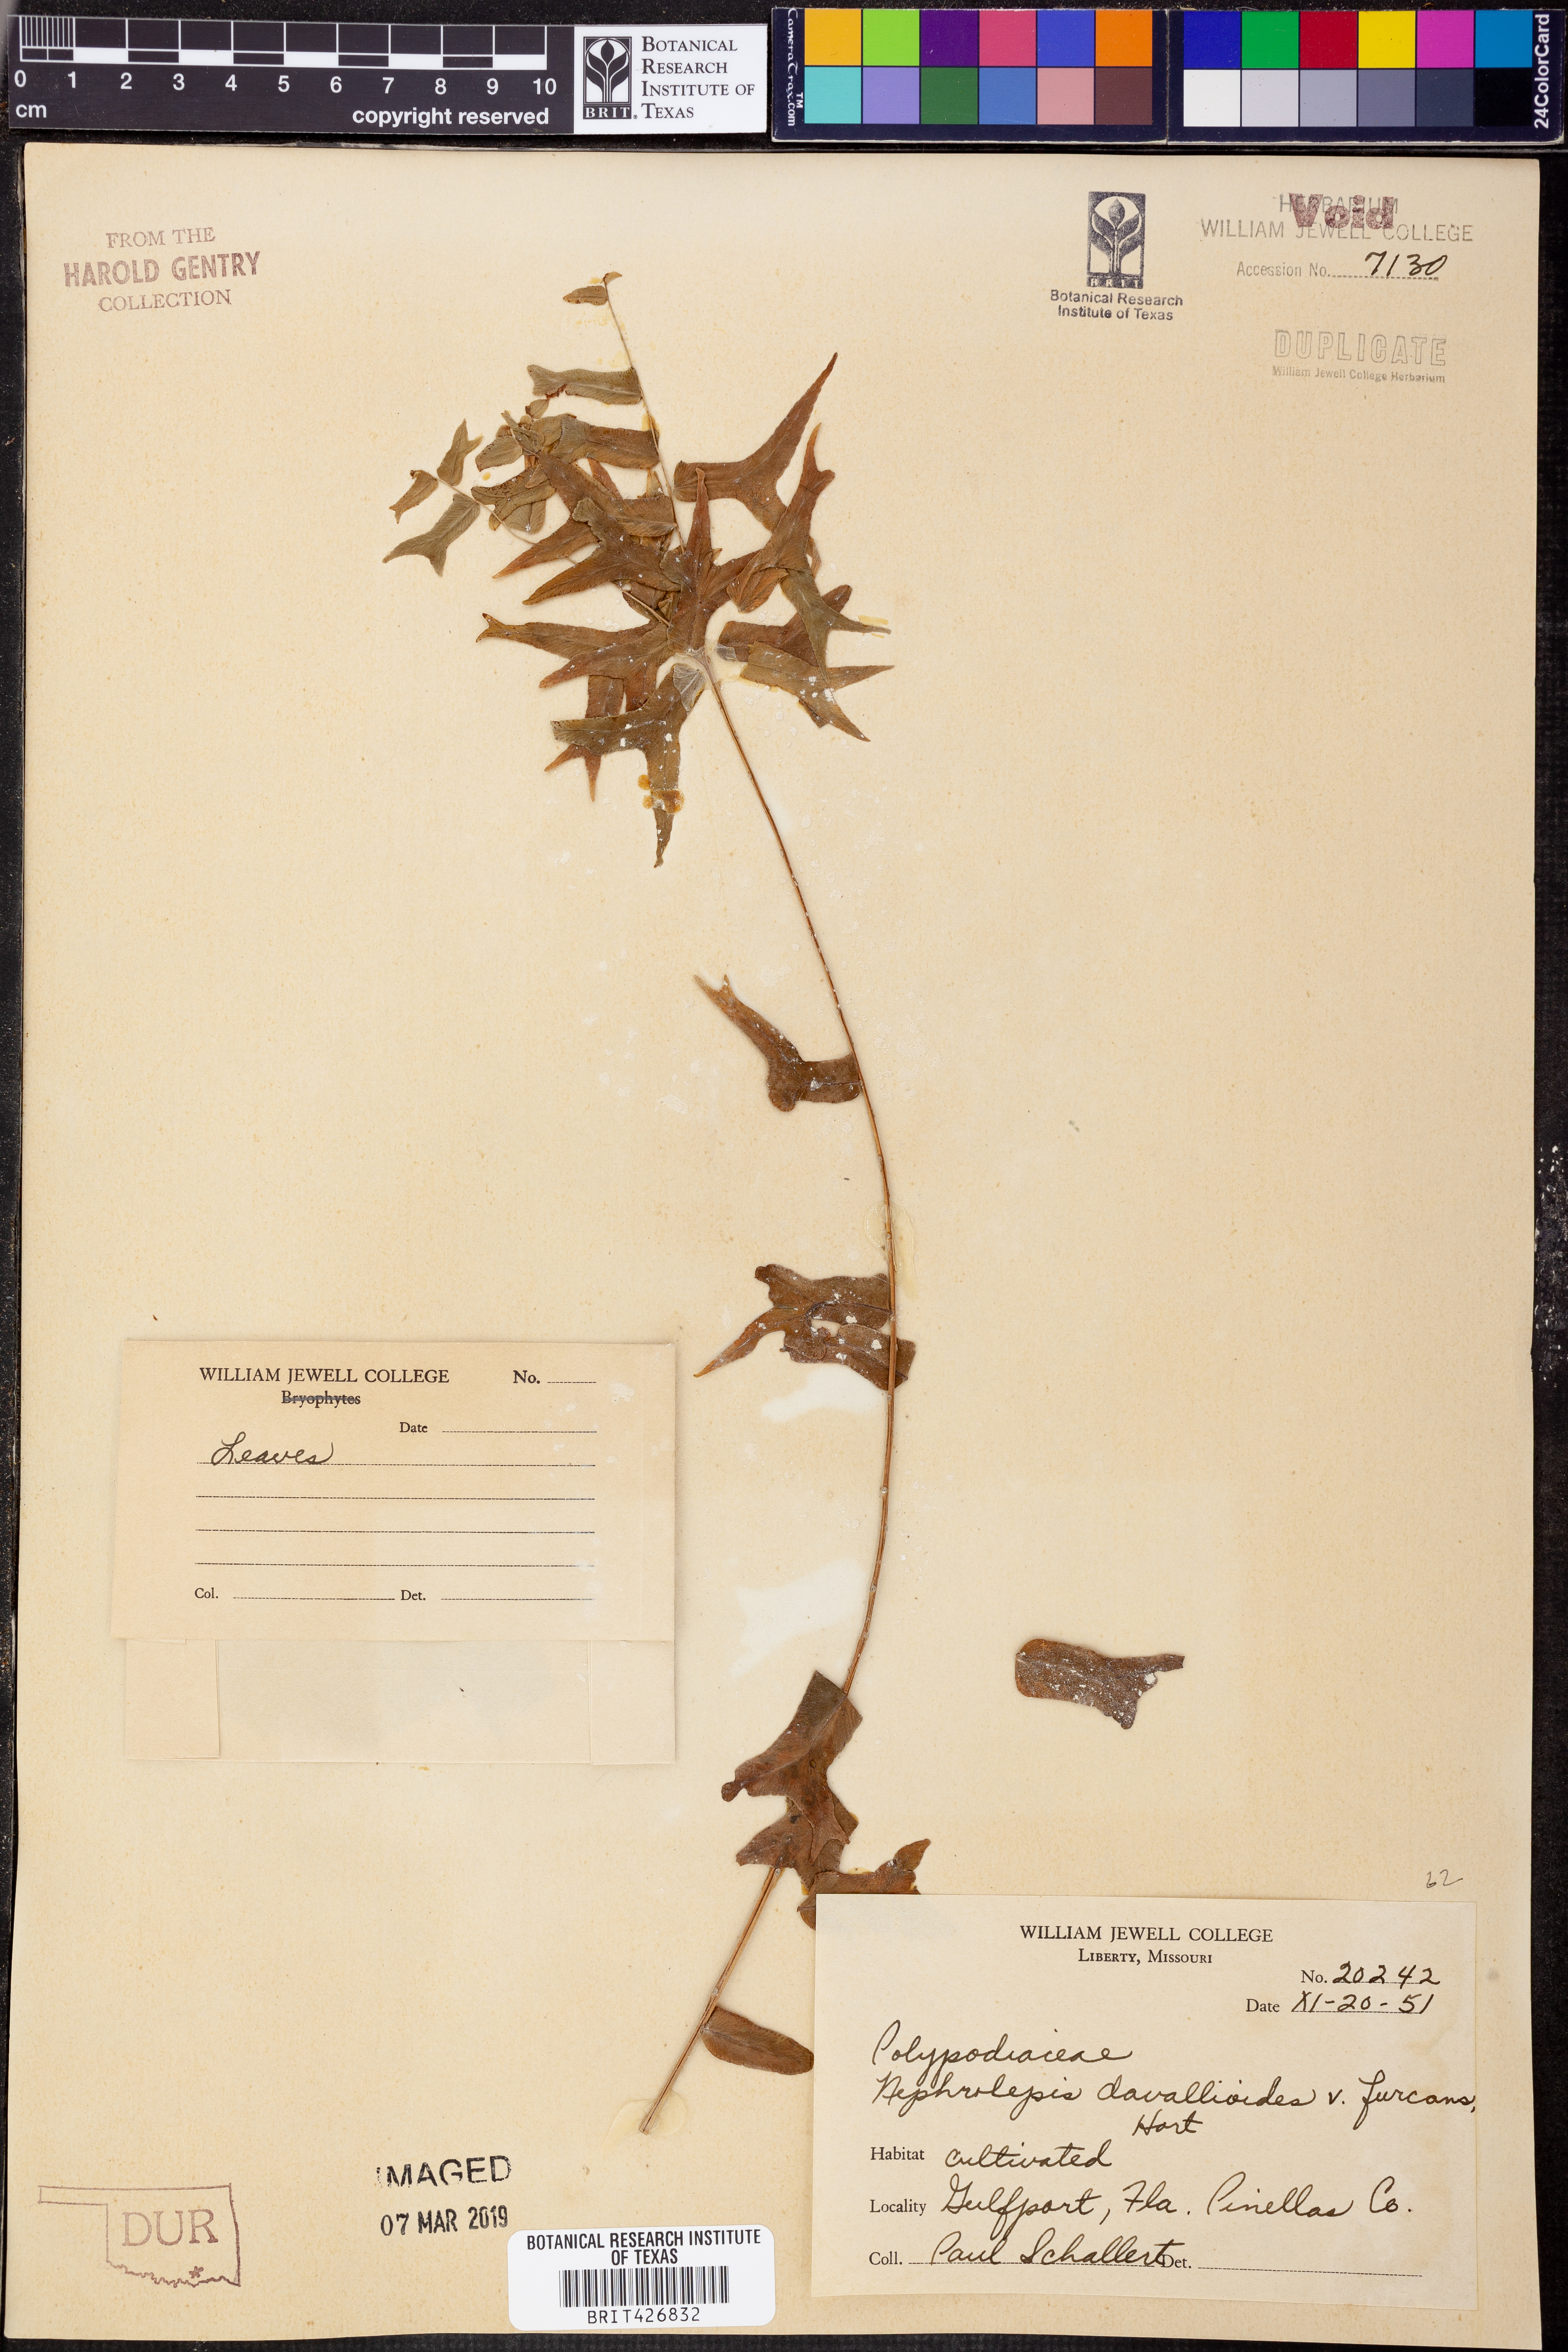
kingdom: Plantae
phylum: Tracheophyta
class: Polypodiopsida
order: Polypodiales
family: Nephrolepidaceae
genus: Nephrolepis
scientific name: Nephrolepis davallioides
